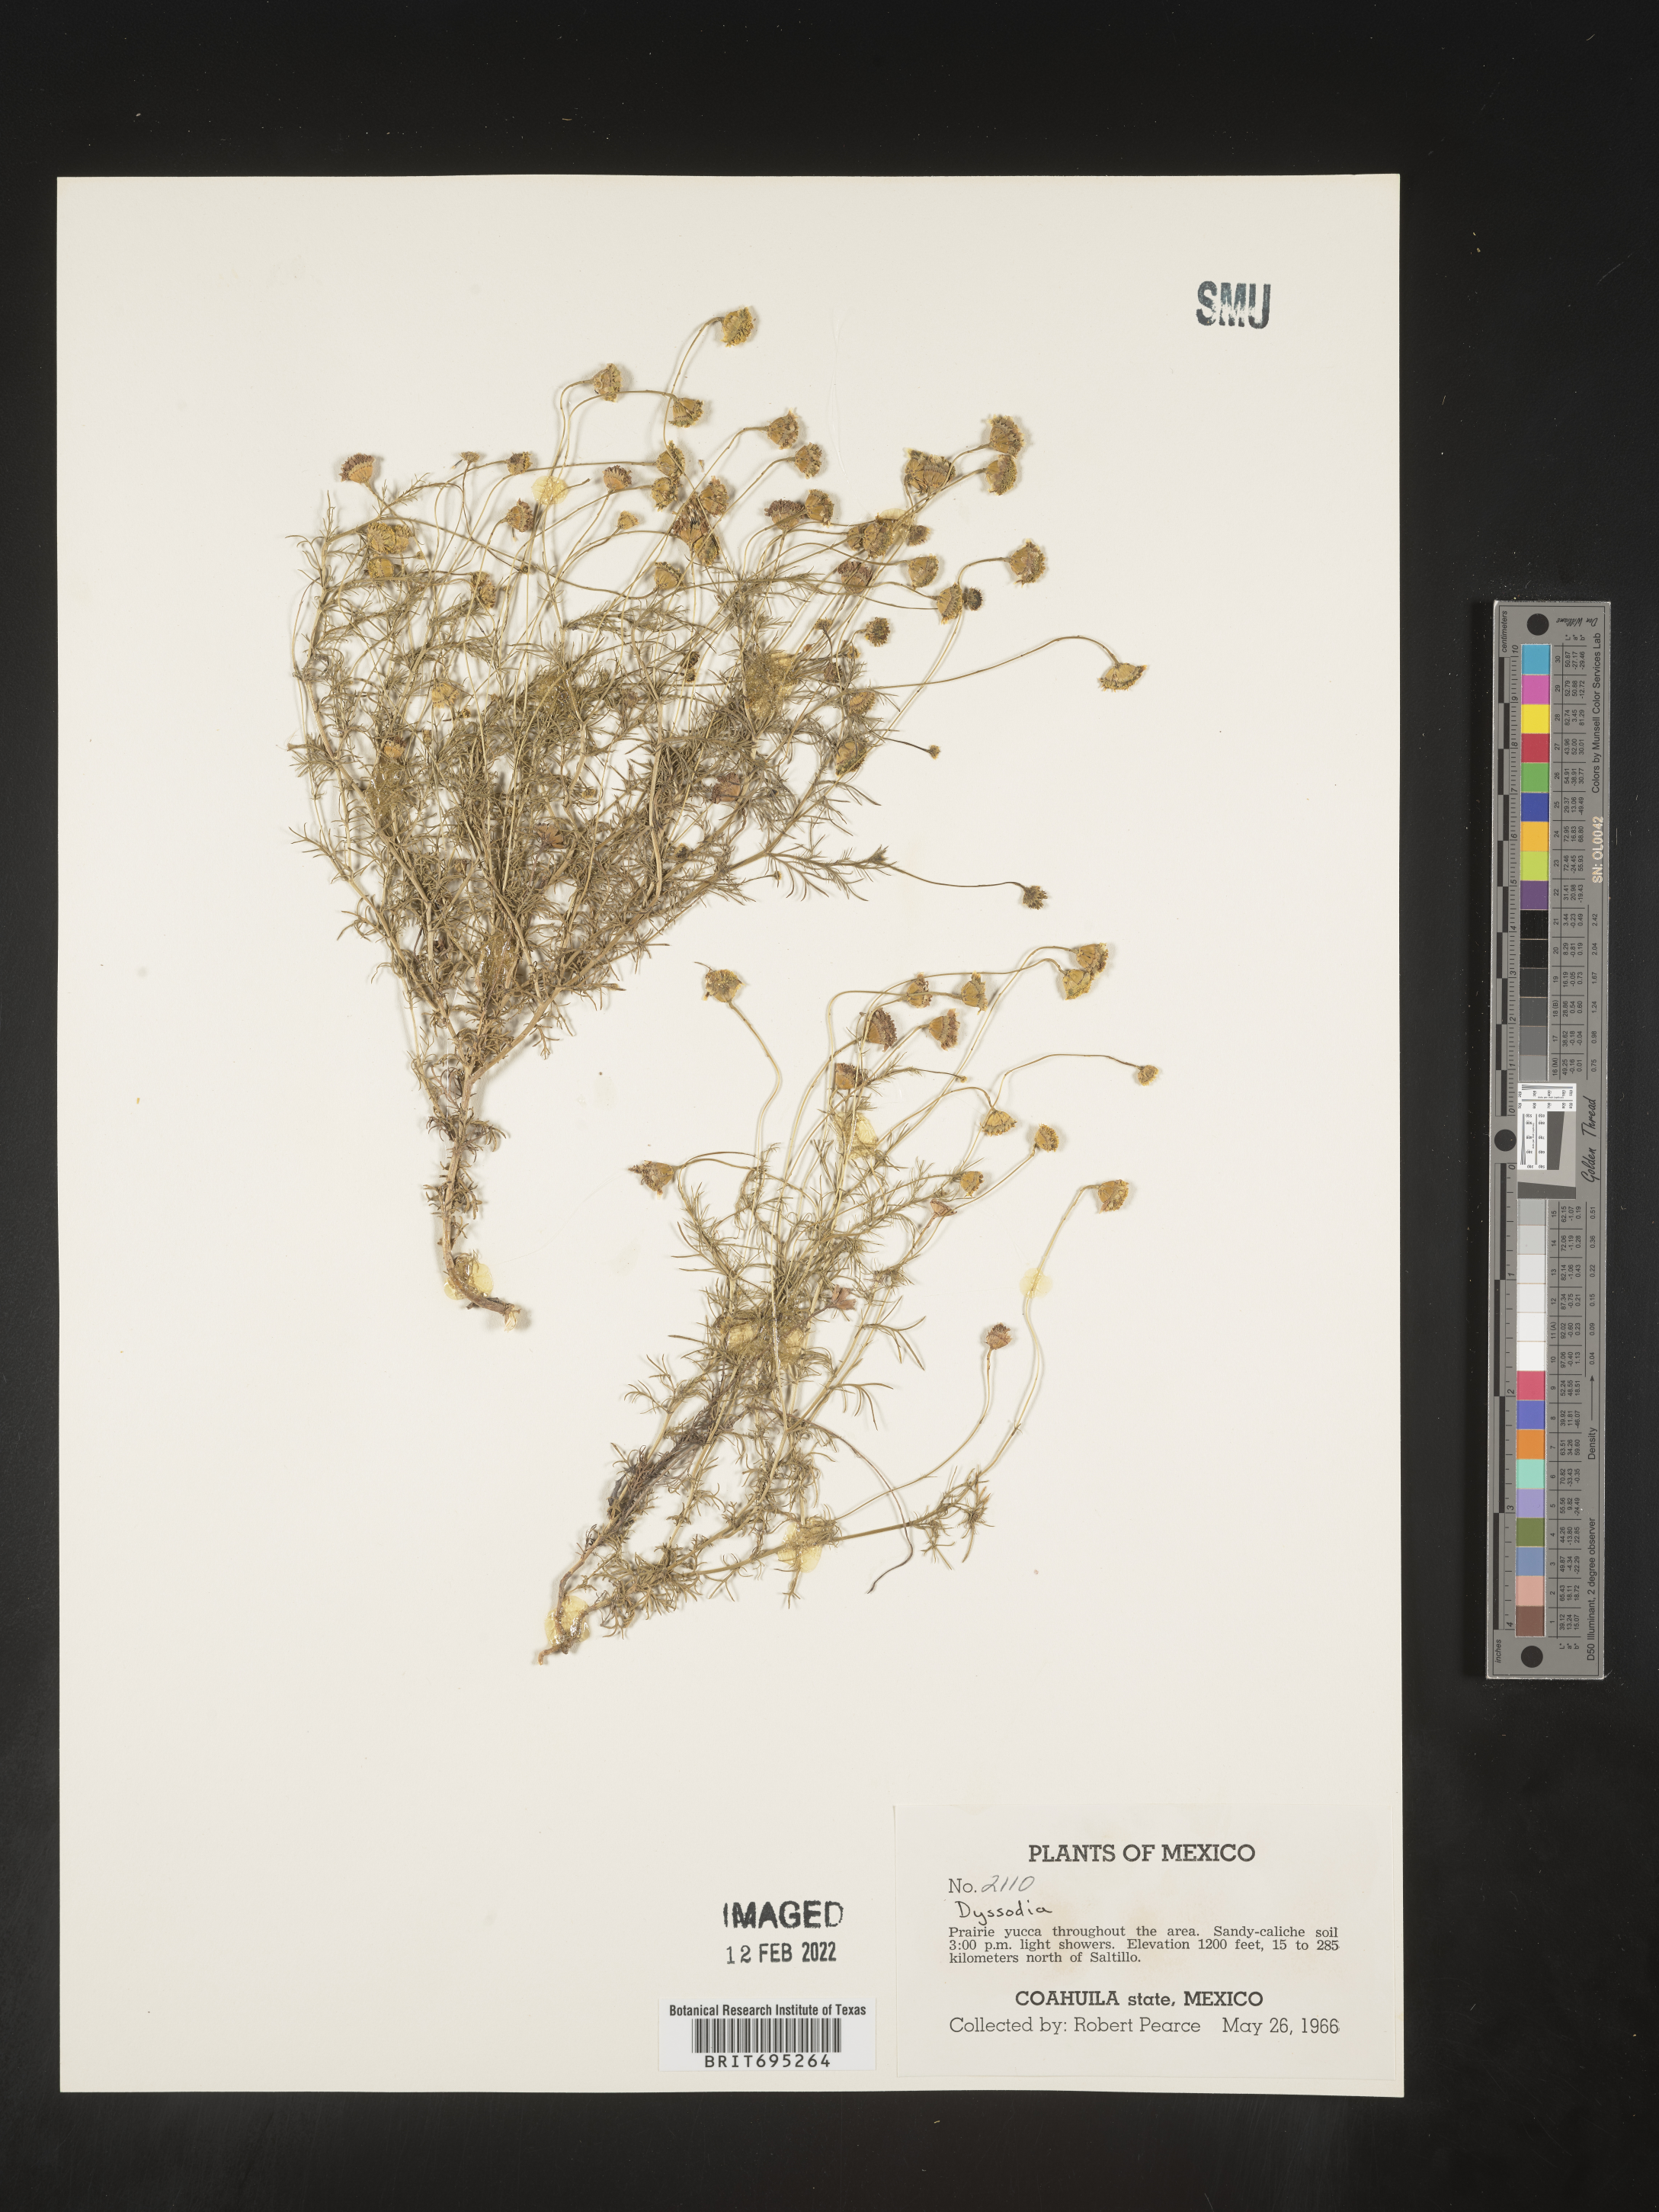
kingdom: Plantae
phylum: Tracheophyta
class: Magnoliopsida
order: Asterales
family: Asteraceae
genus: Dyssodia
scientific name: Dyssodia
